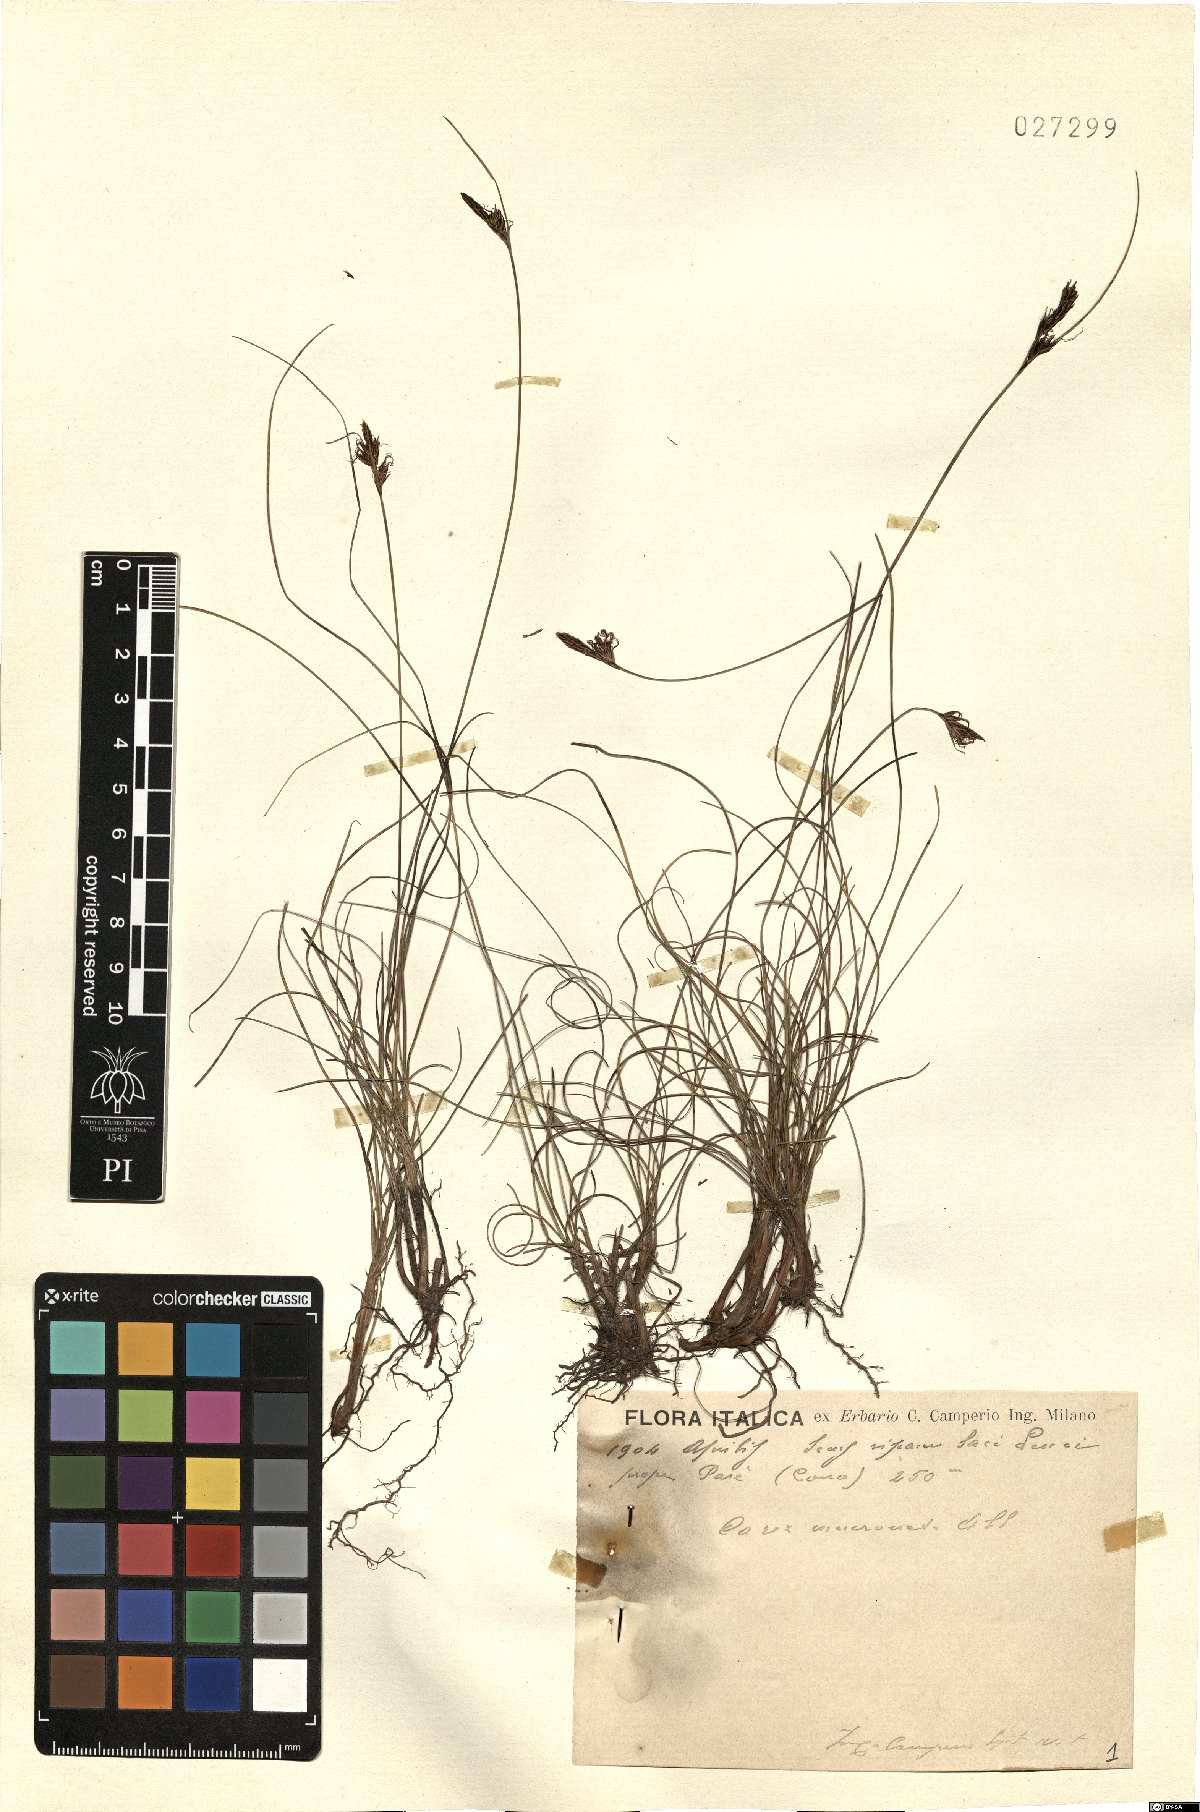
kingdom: Plantae
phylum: Tracheophyta
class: Liliopsida
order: Poales
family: Cyperaceae
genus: Carex
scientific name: Carex mucronata
